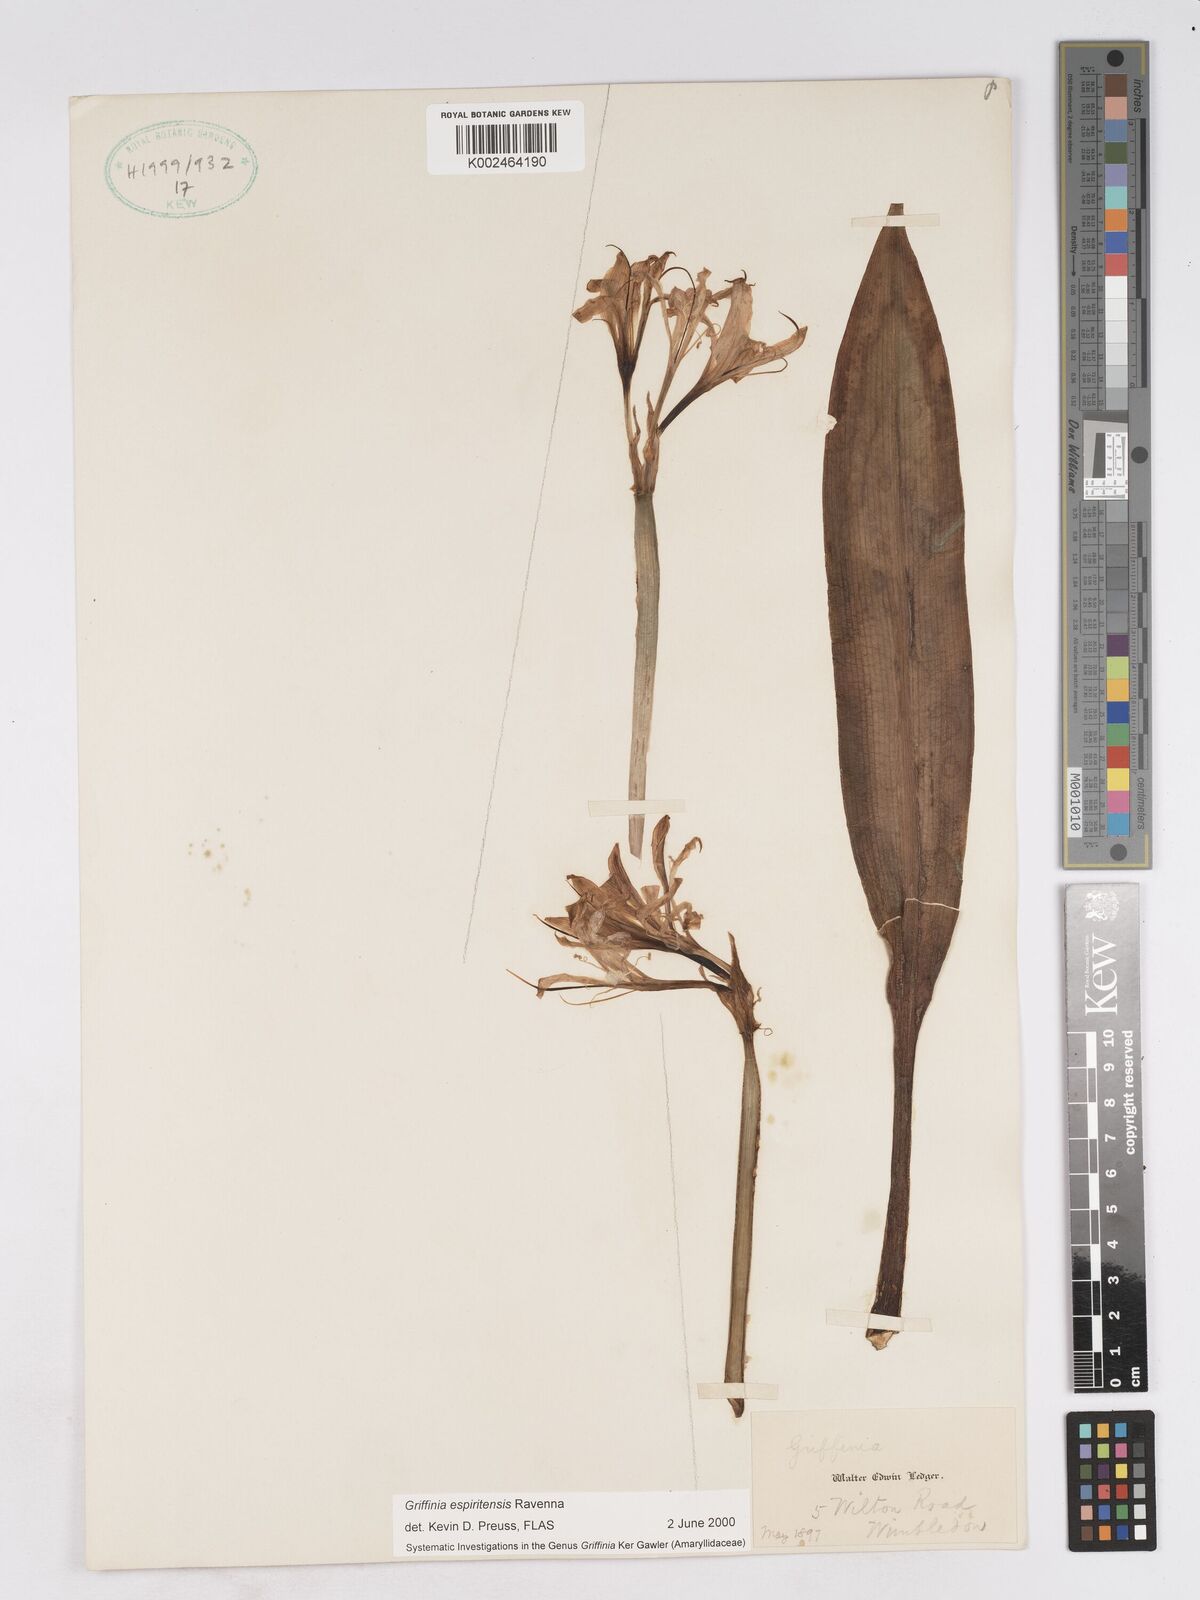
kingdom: Plantae
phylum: Tracheophyta
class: Liliopsida
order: Asparagales
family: Amaryllidaceae
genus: Griffinia
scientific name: Griffinia espiritensis
